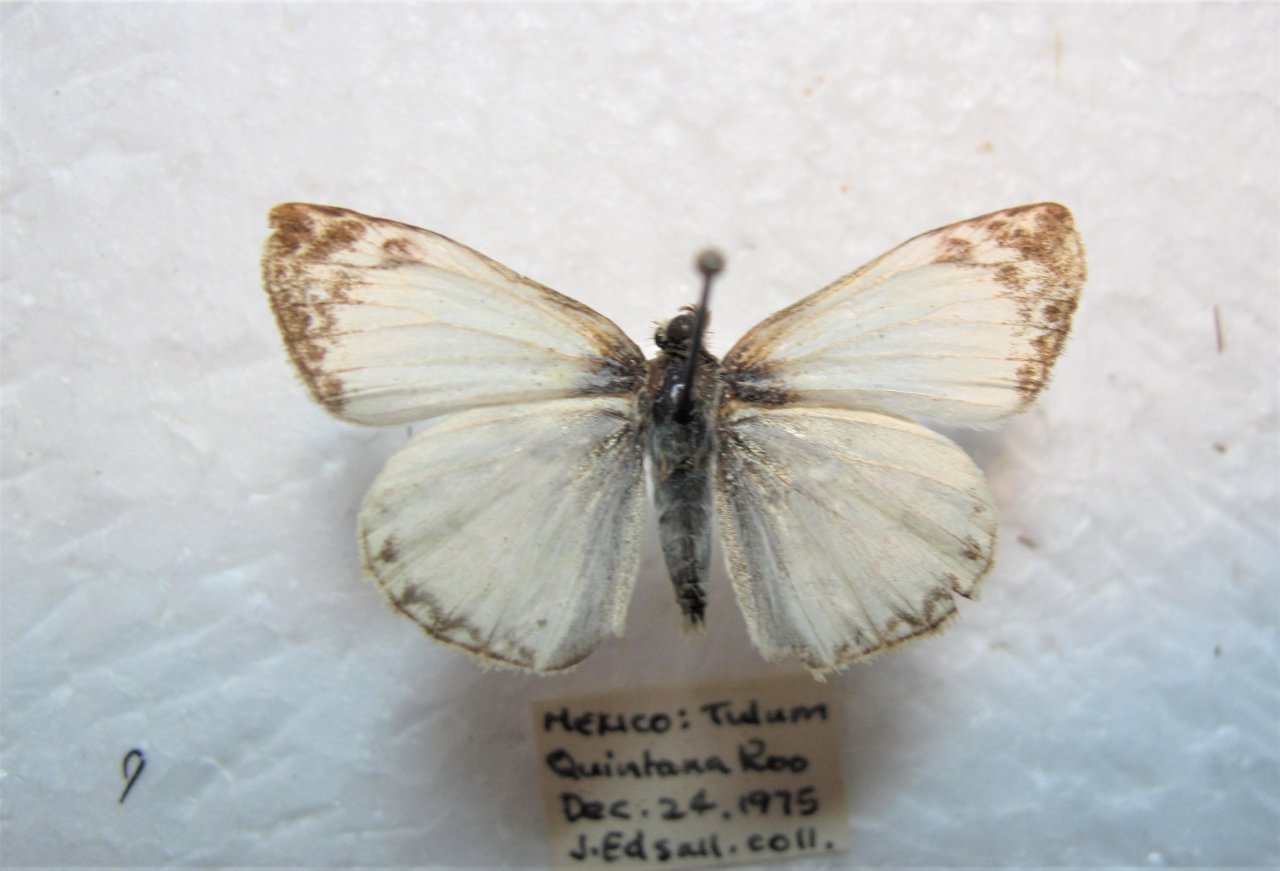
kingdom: Animalia
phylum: Arthropoda
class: Insecta
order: Lepidoptera
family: Hesperiidae
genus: Heliopetes
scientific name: Heliopetes laviana
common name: Laviana White-Skipper
